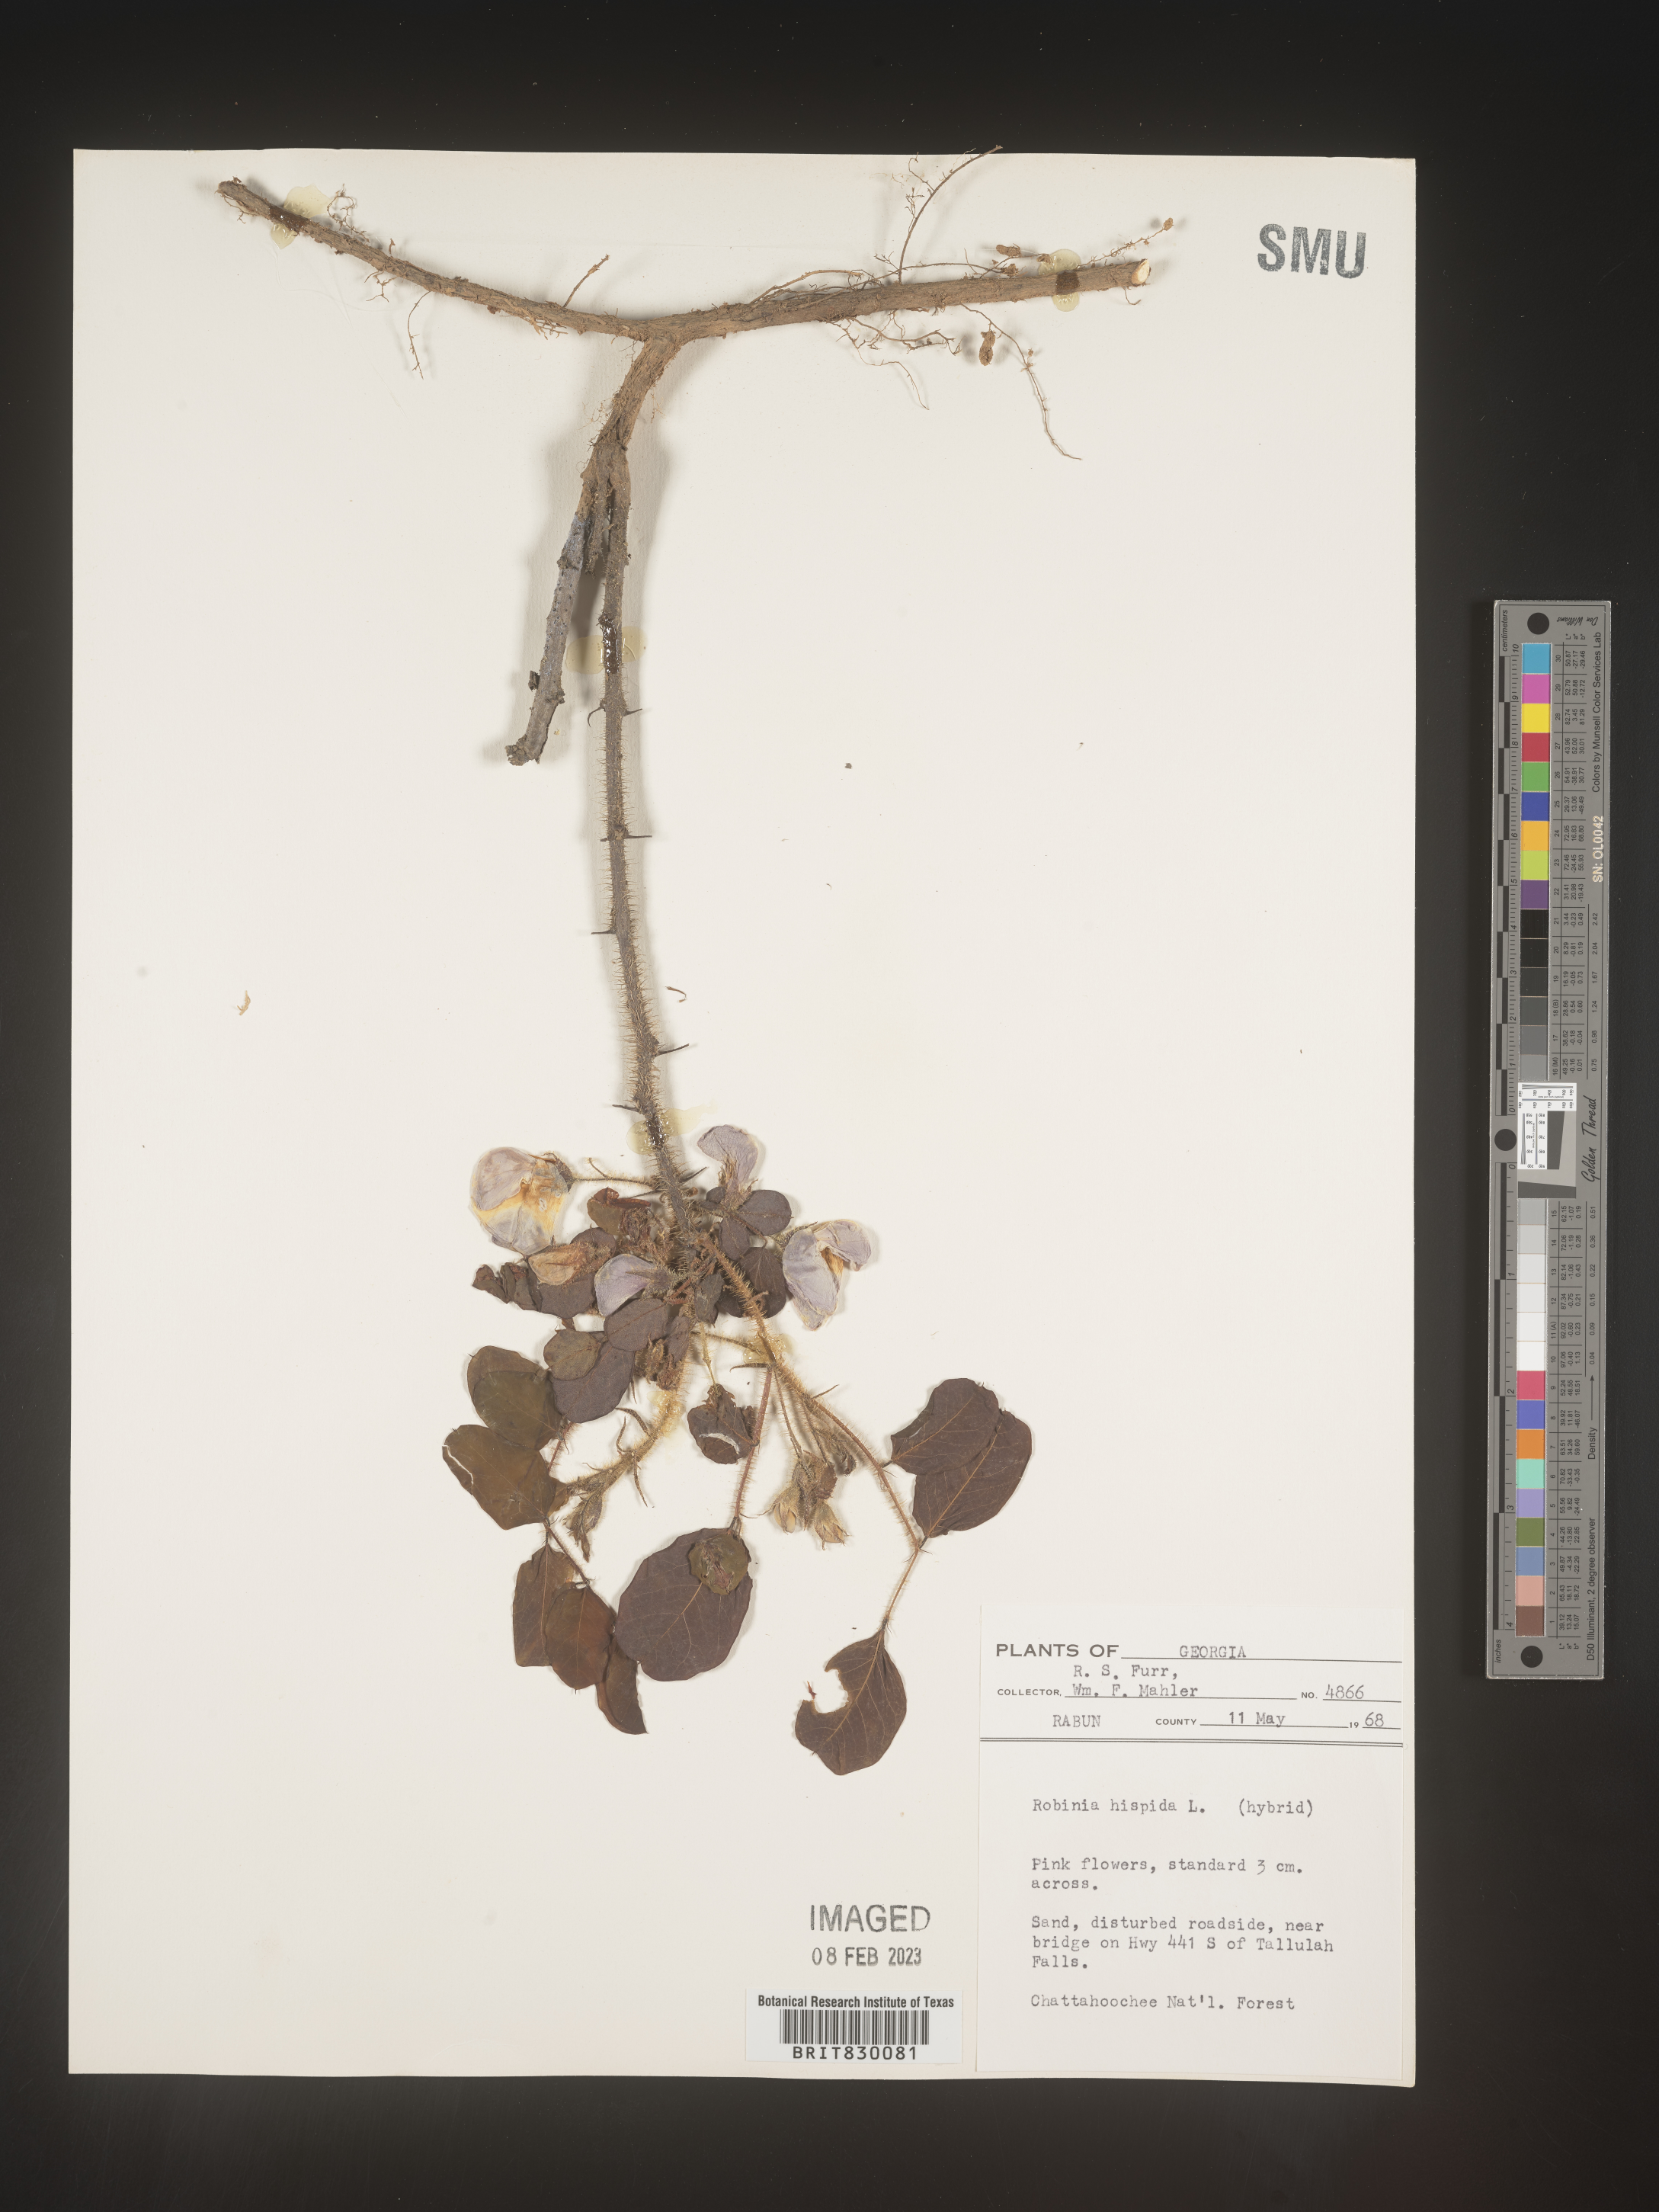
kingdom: Plantae
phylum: Tracheophyta
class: Magnoliopsida
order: Fabales
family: Fabaceae
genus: Robinia
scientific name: Robinia hispida
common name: Bristly locust
